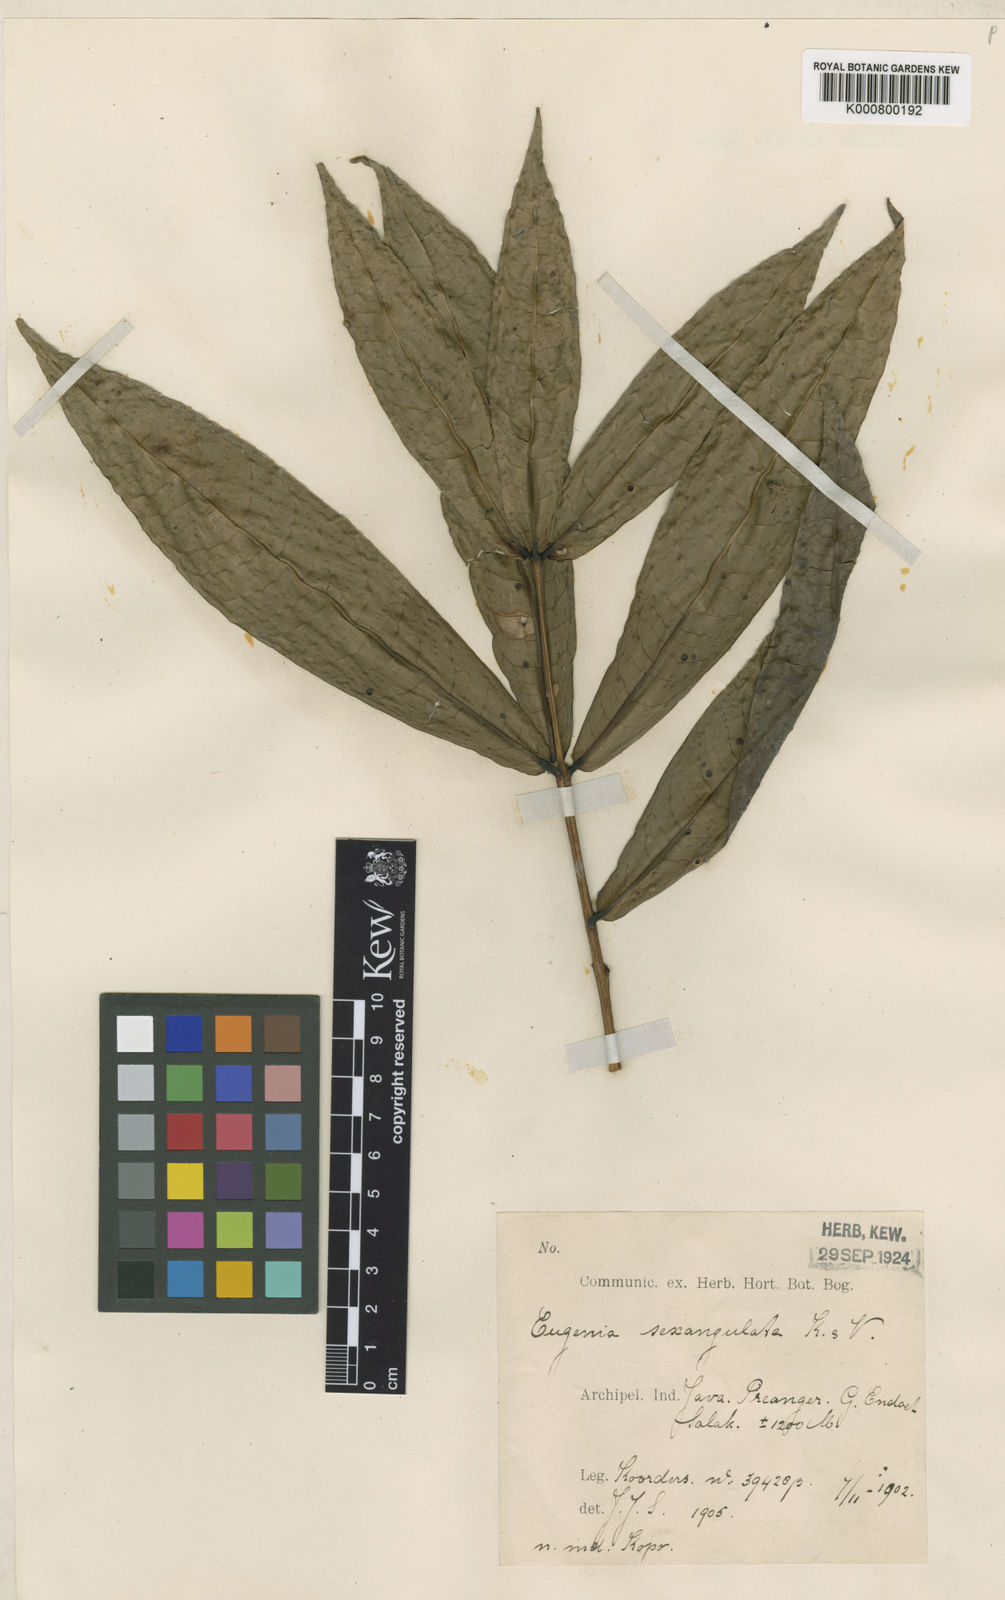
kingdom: Plantae
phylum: Tracheophyta
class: Magnoliopsida
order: Myrtales
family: Myrtaceae
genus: Syzygium
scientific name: Syzygium sexangulatum
